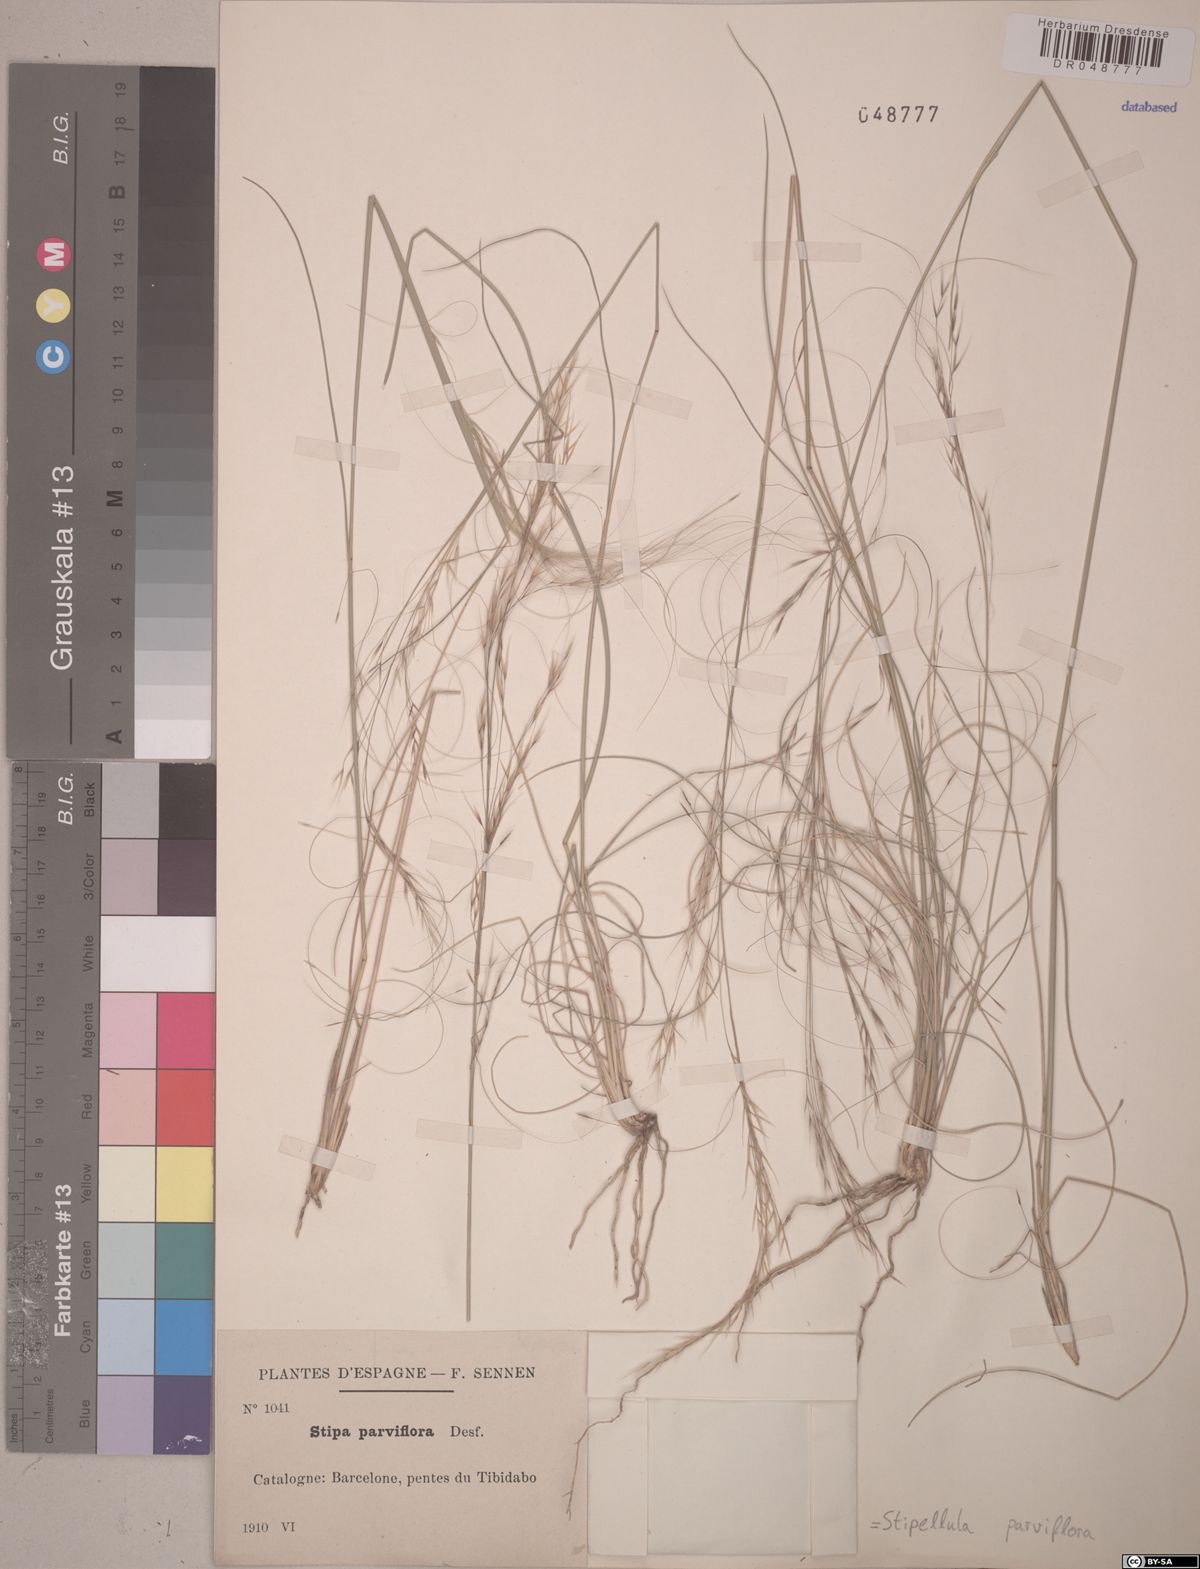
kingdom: Plantae
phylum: Tracheophyta
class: Liliopsida
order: Poales
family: Poaceae
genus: Achnatherum
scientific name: Achnatherum parviflorum
